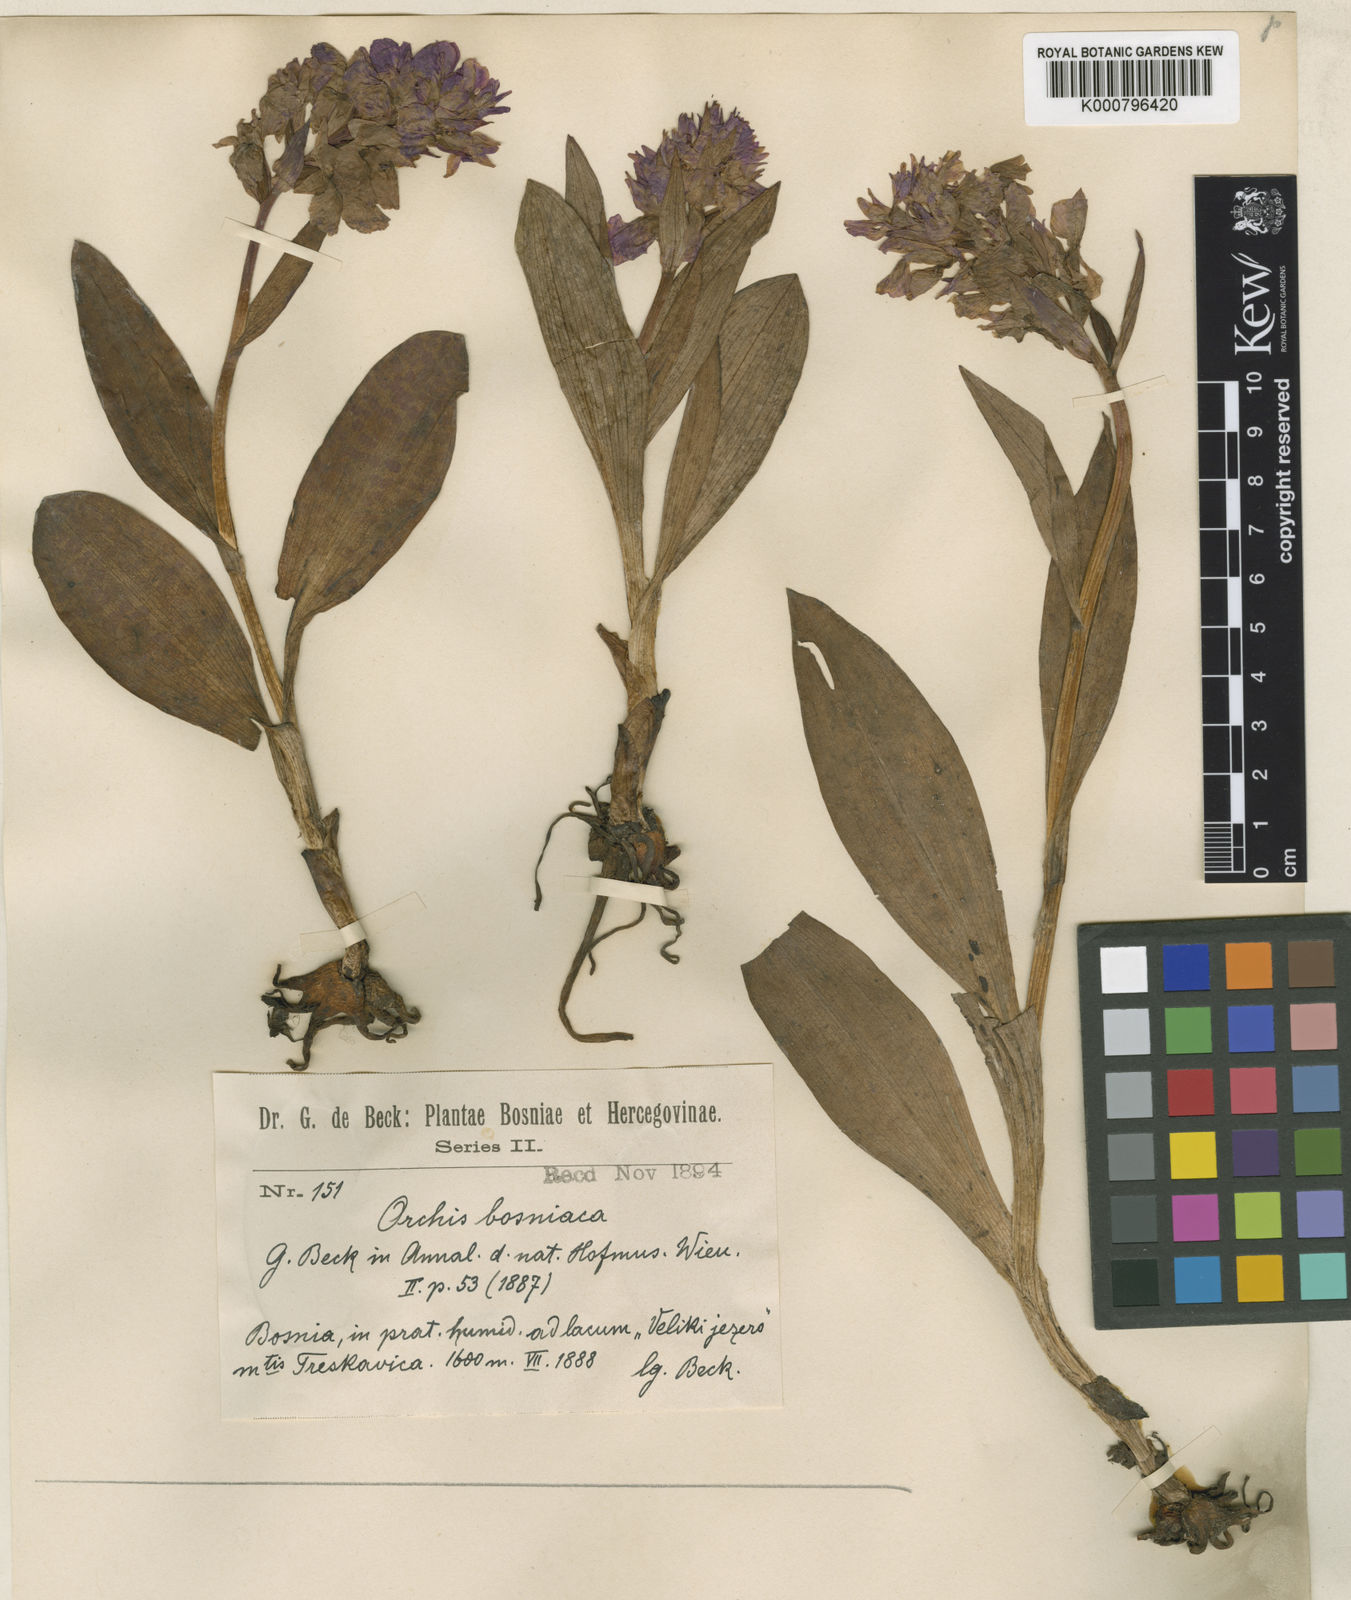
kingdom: Plantae
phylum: Tracheophyta
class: Liliopsida
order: Asparagales
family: Orchidaceae
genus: Dactylorhiza
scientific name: Dactylorhiza
